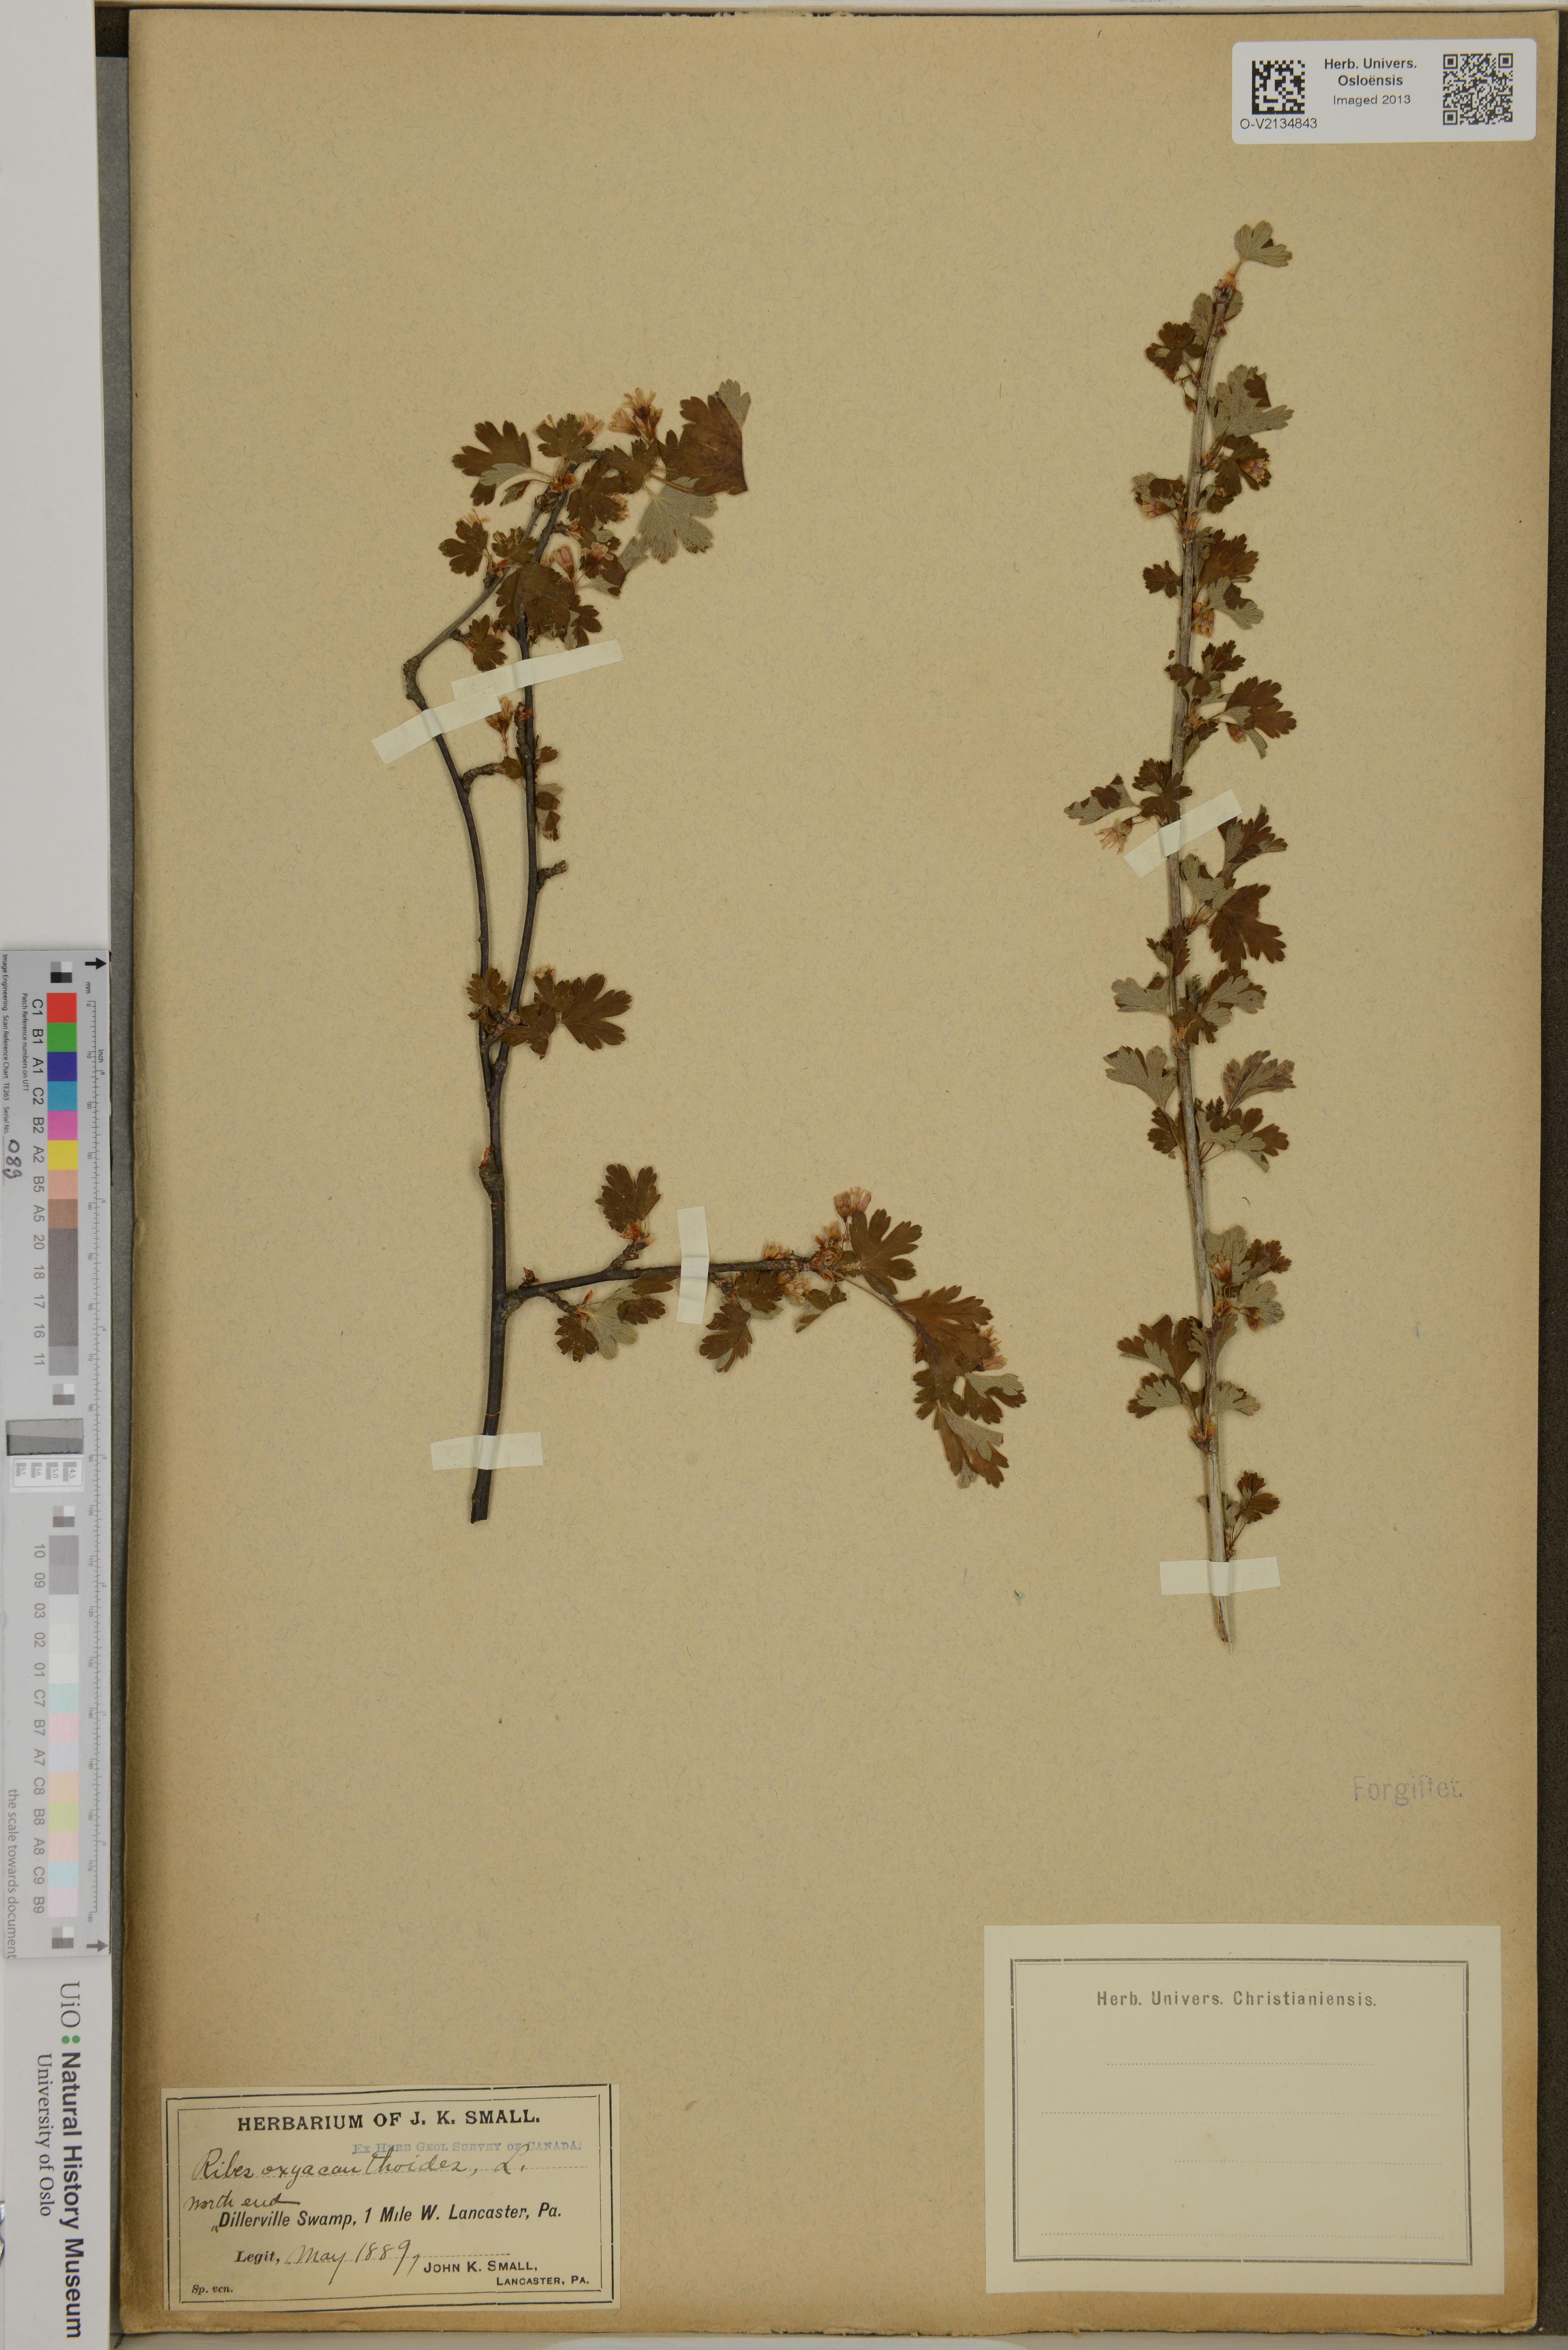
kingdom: Plantae
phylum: Tracheophyta
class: Magnoliopsida
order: Saxifragales
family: Grossulariaceae
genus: Ribes
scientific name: Ribes oxyacanthoides
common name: Northern gooseberry
